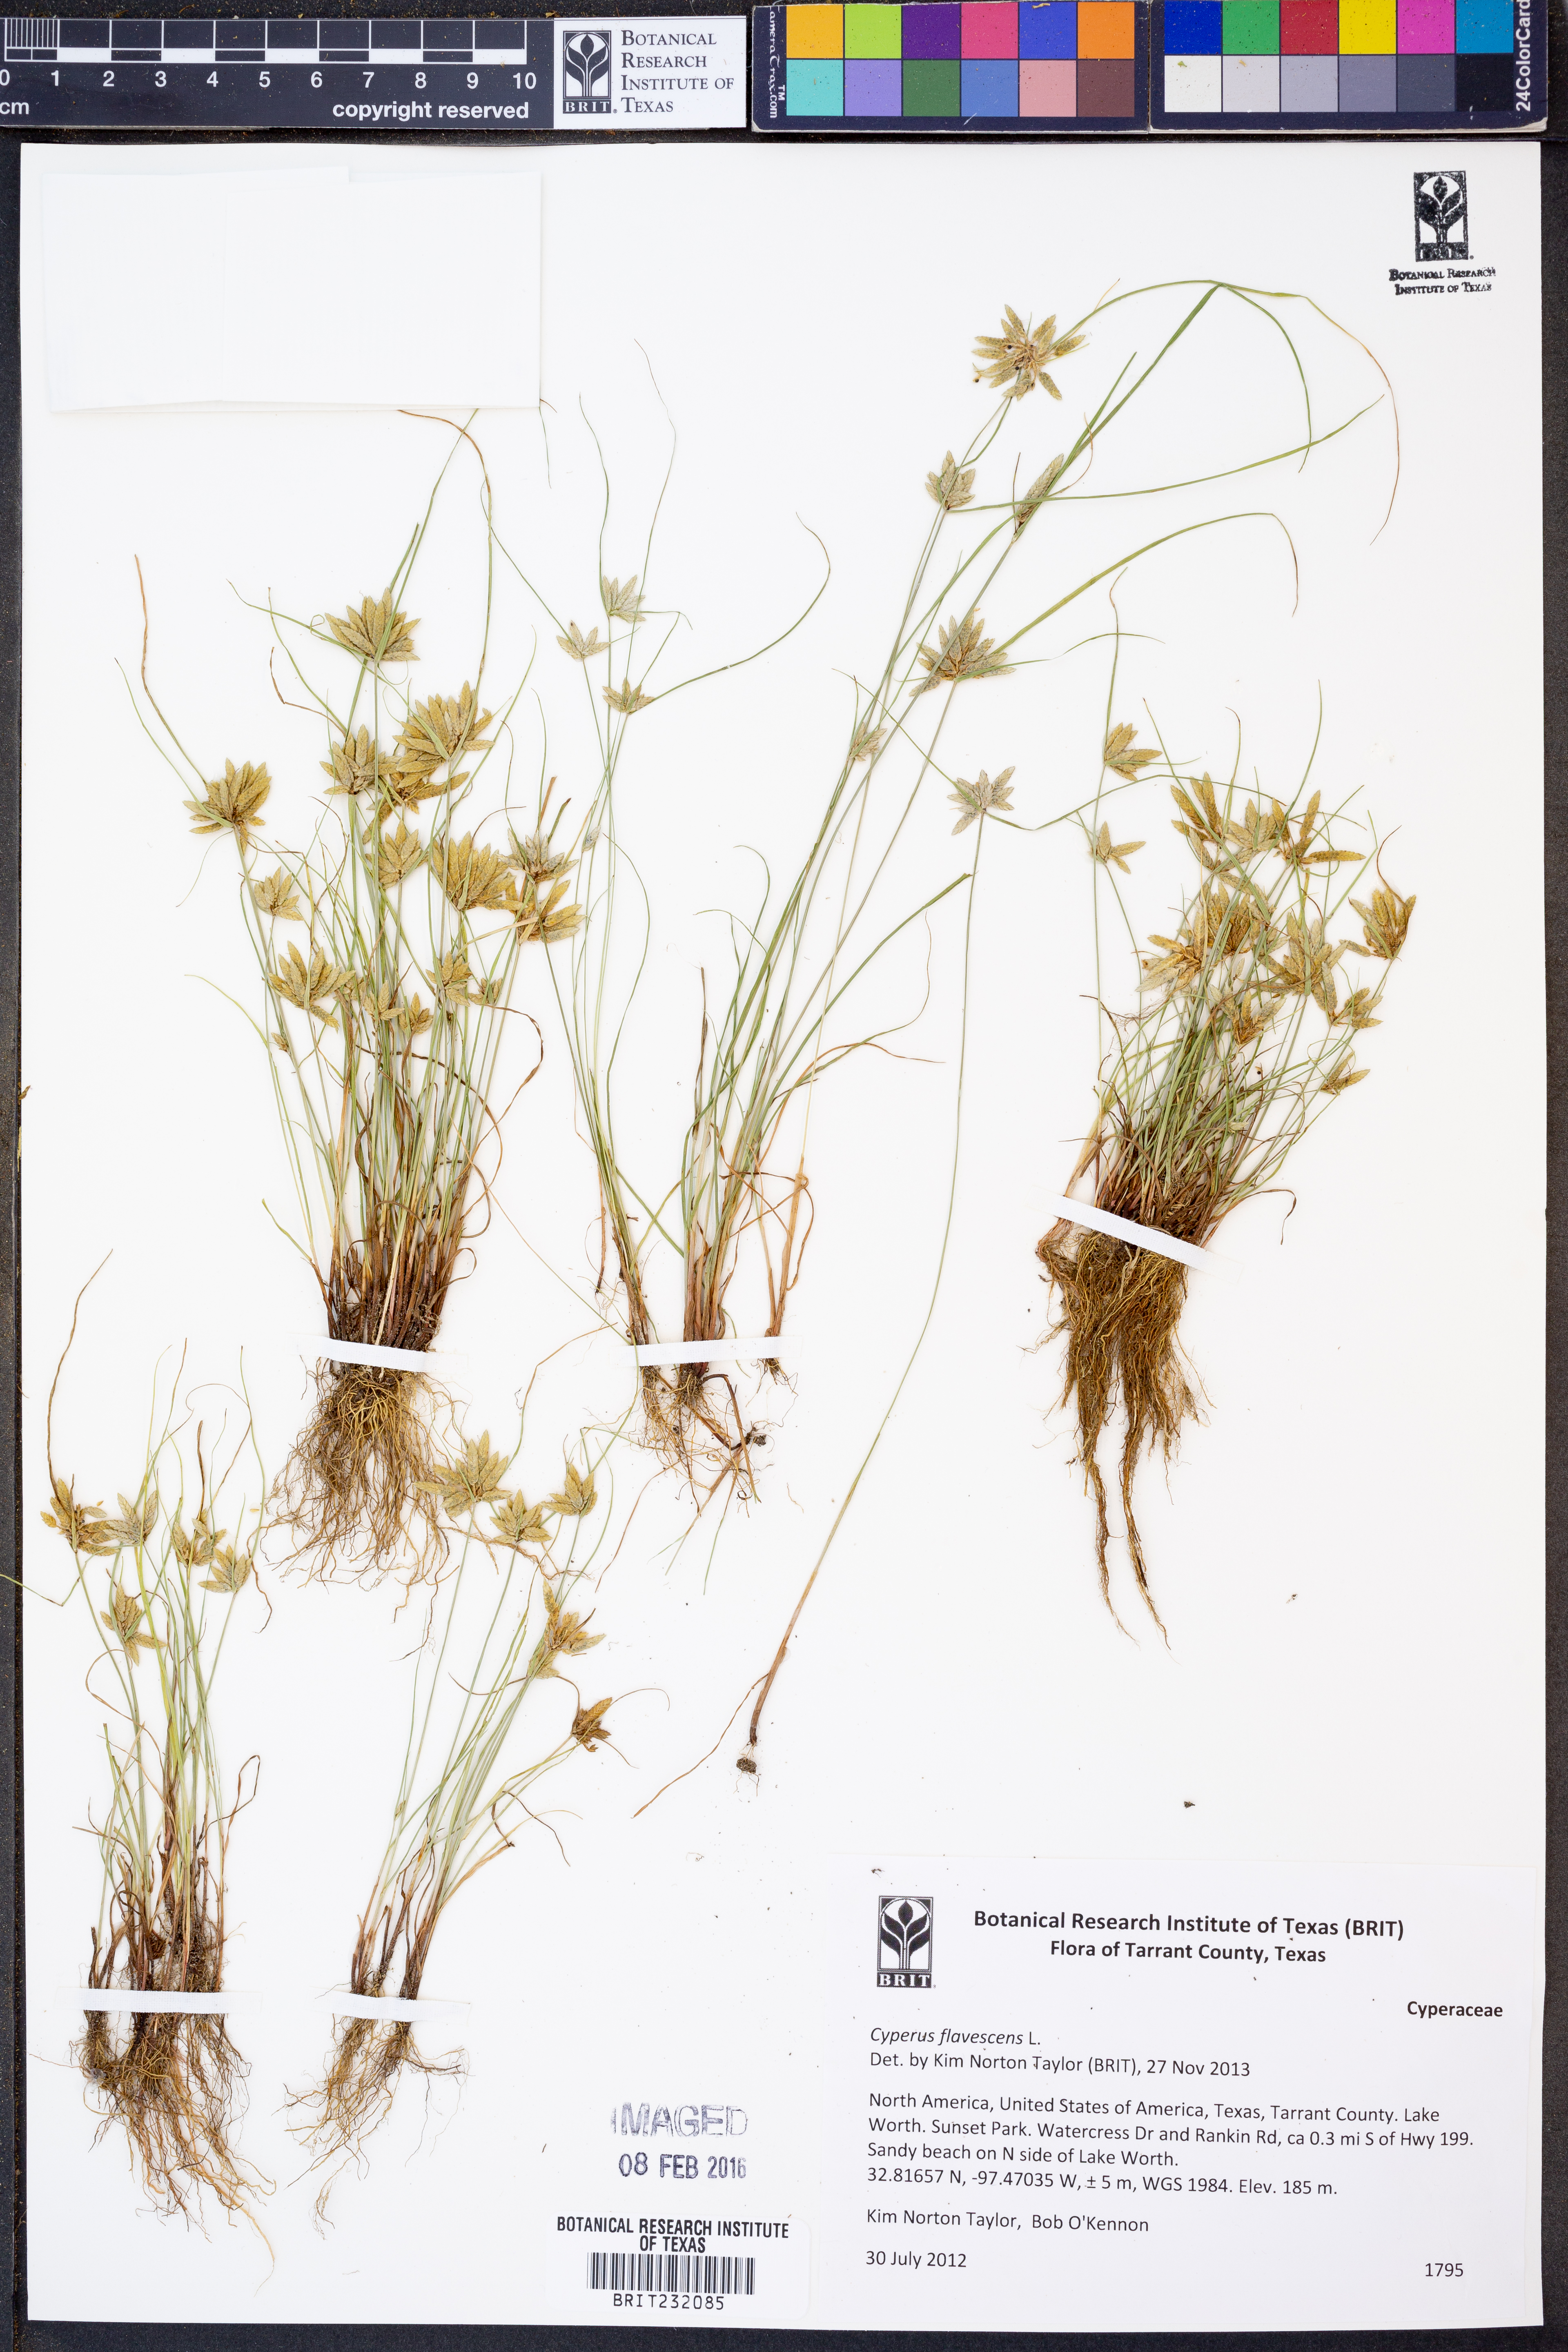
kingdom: Plantae
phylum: Tracheophyta
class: Liliopsida
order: Poales
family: Cyperaceae
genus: Cyperus
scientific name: Cyperus flavescens
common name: Yellow galingale
